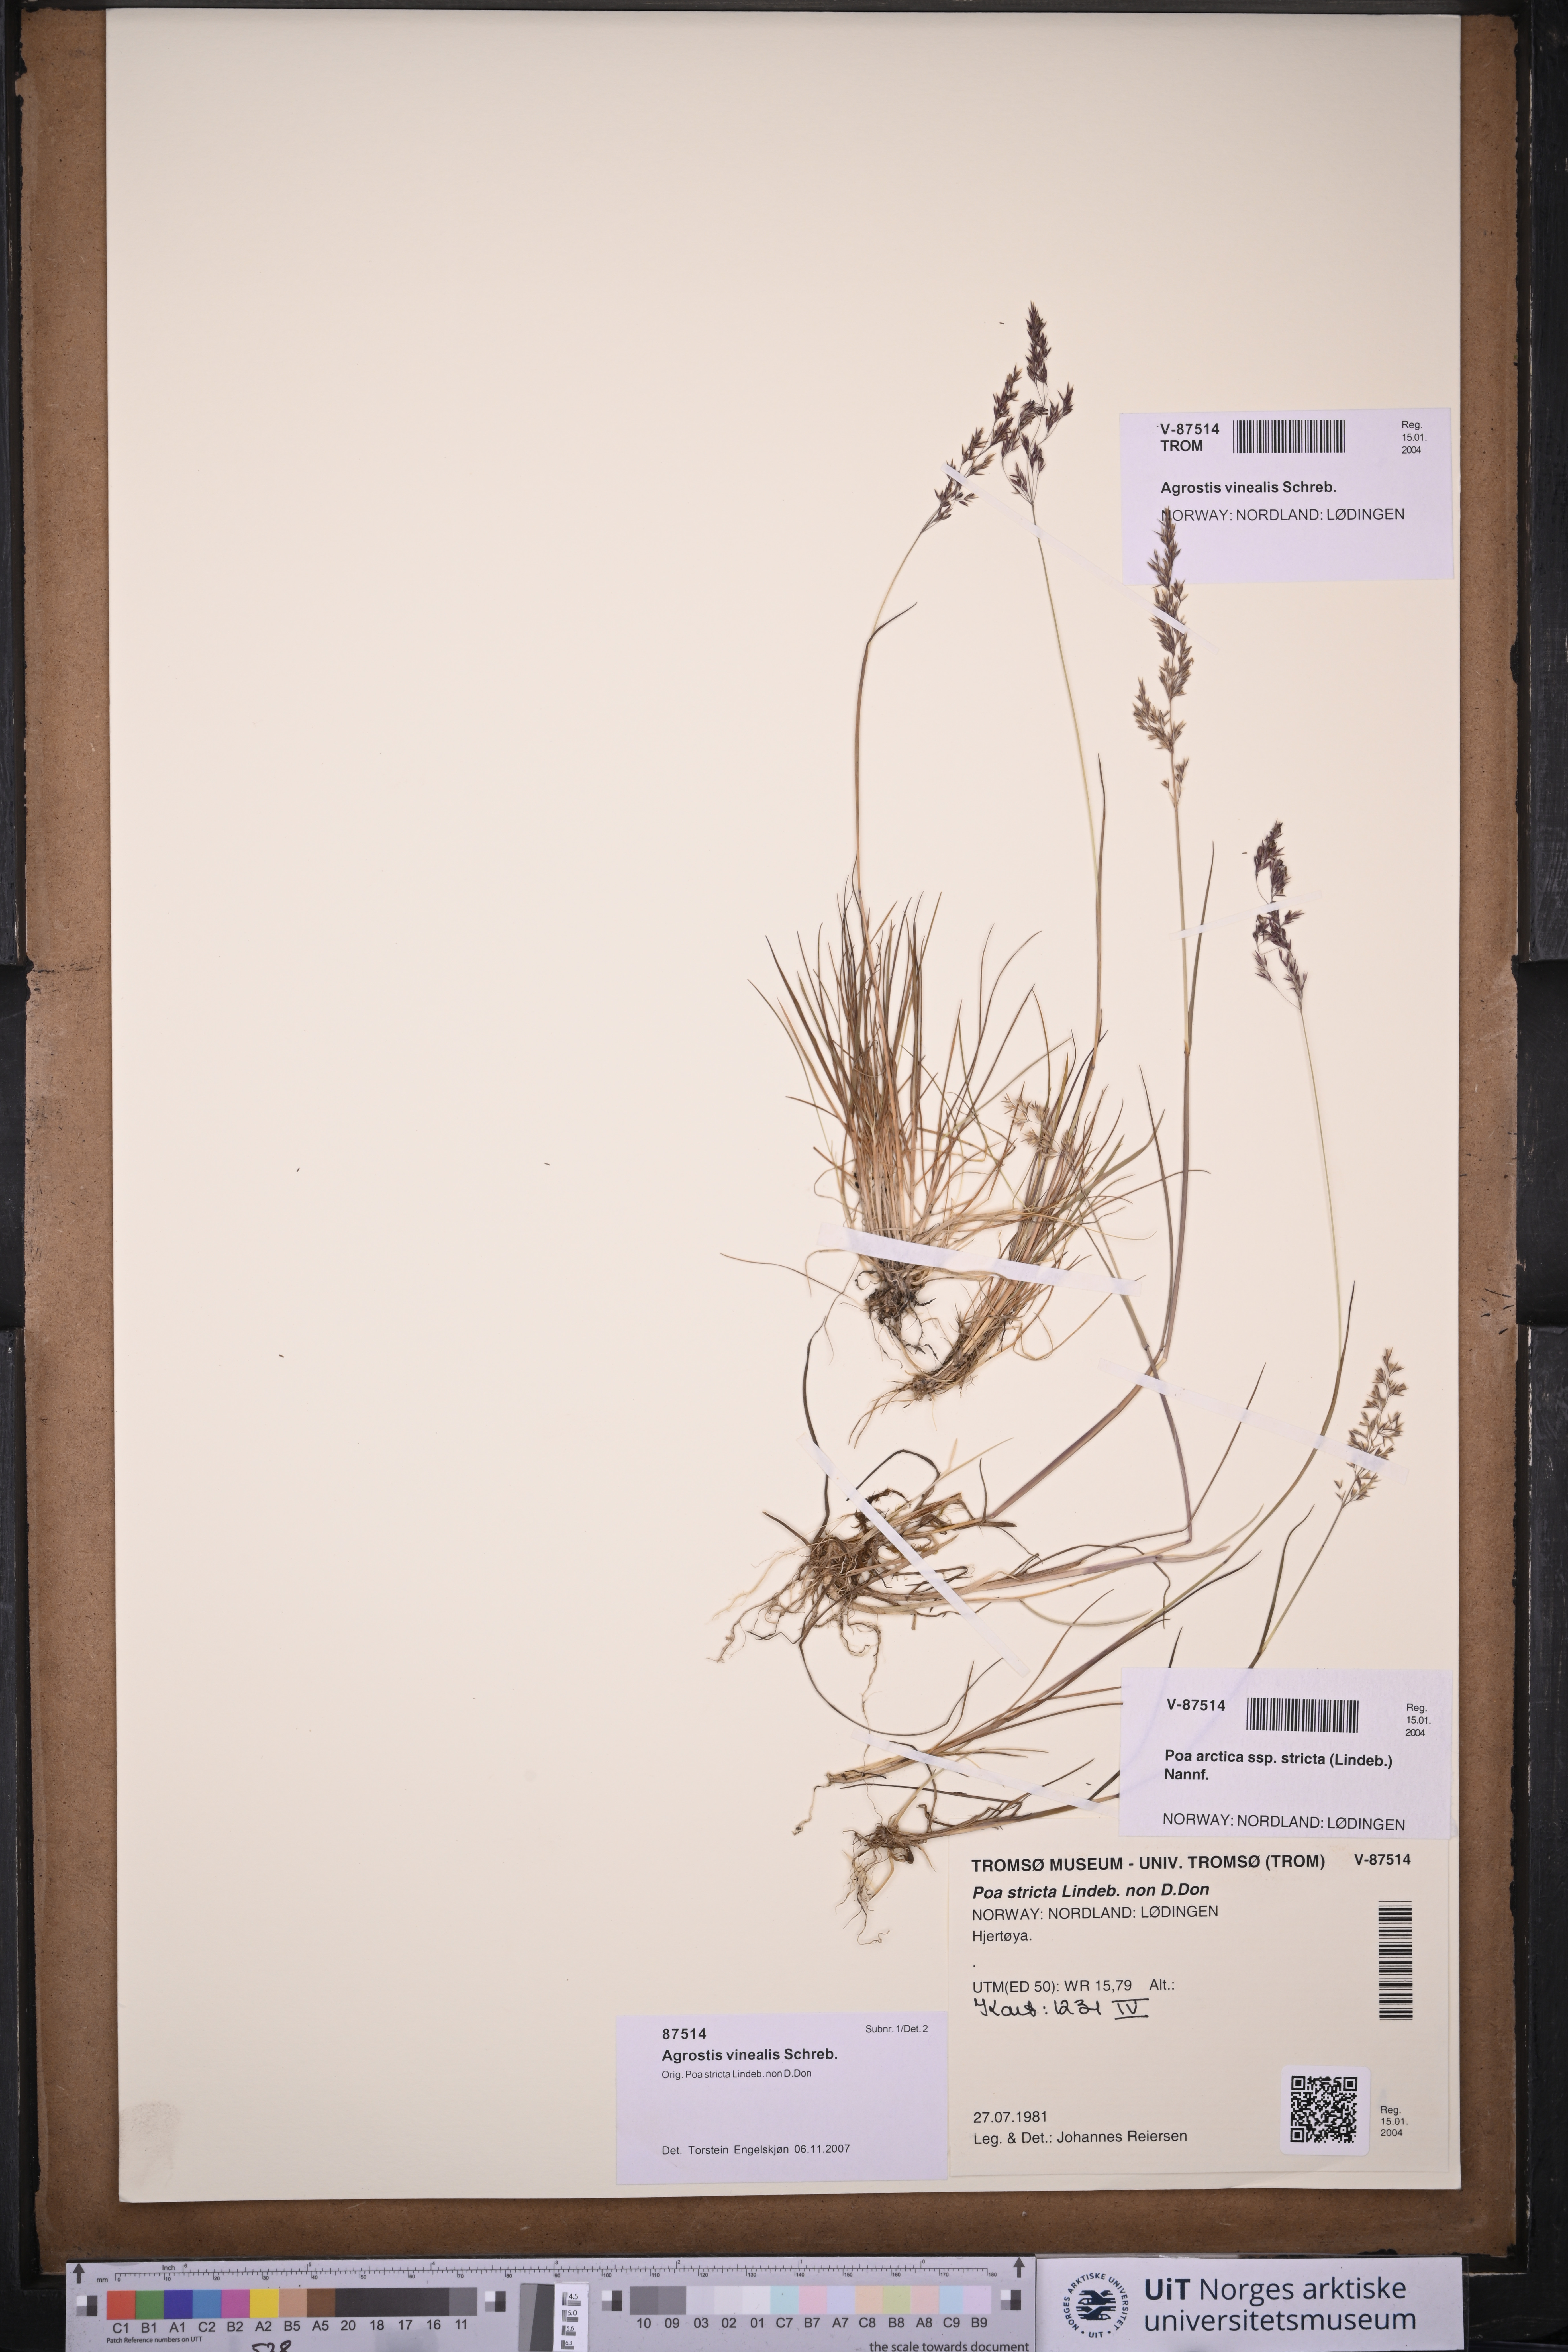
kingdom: Plantae
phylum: Tracheophyta
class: Liliopsida
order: Poales
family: Poaceae
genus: Agrostis
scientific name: Agrostis vinealis
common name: Brown bent
